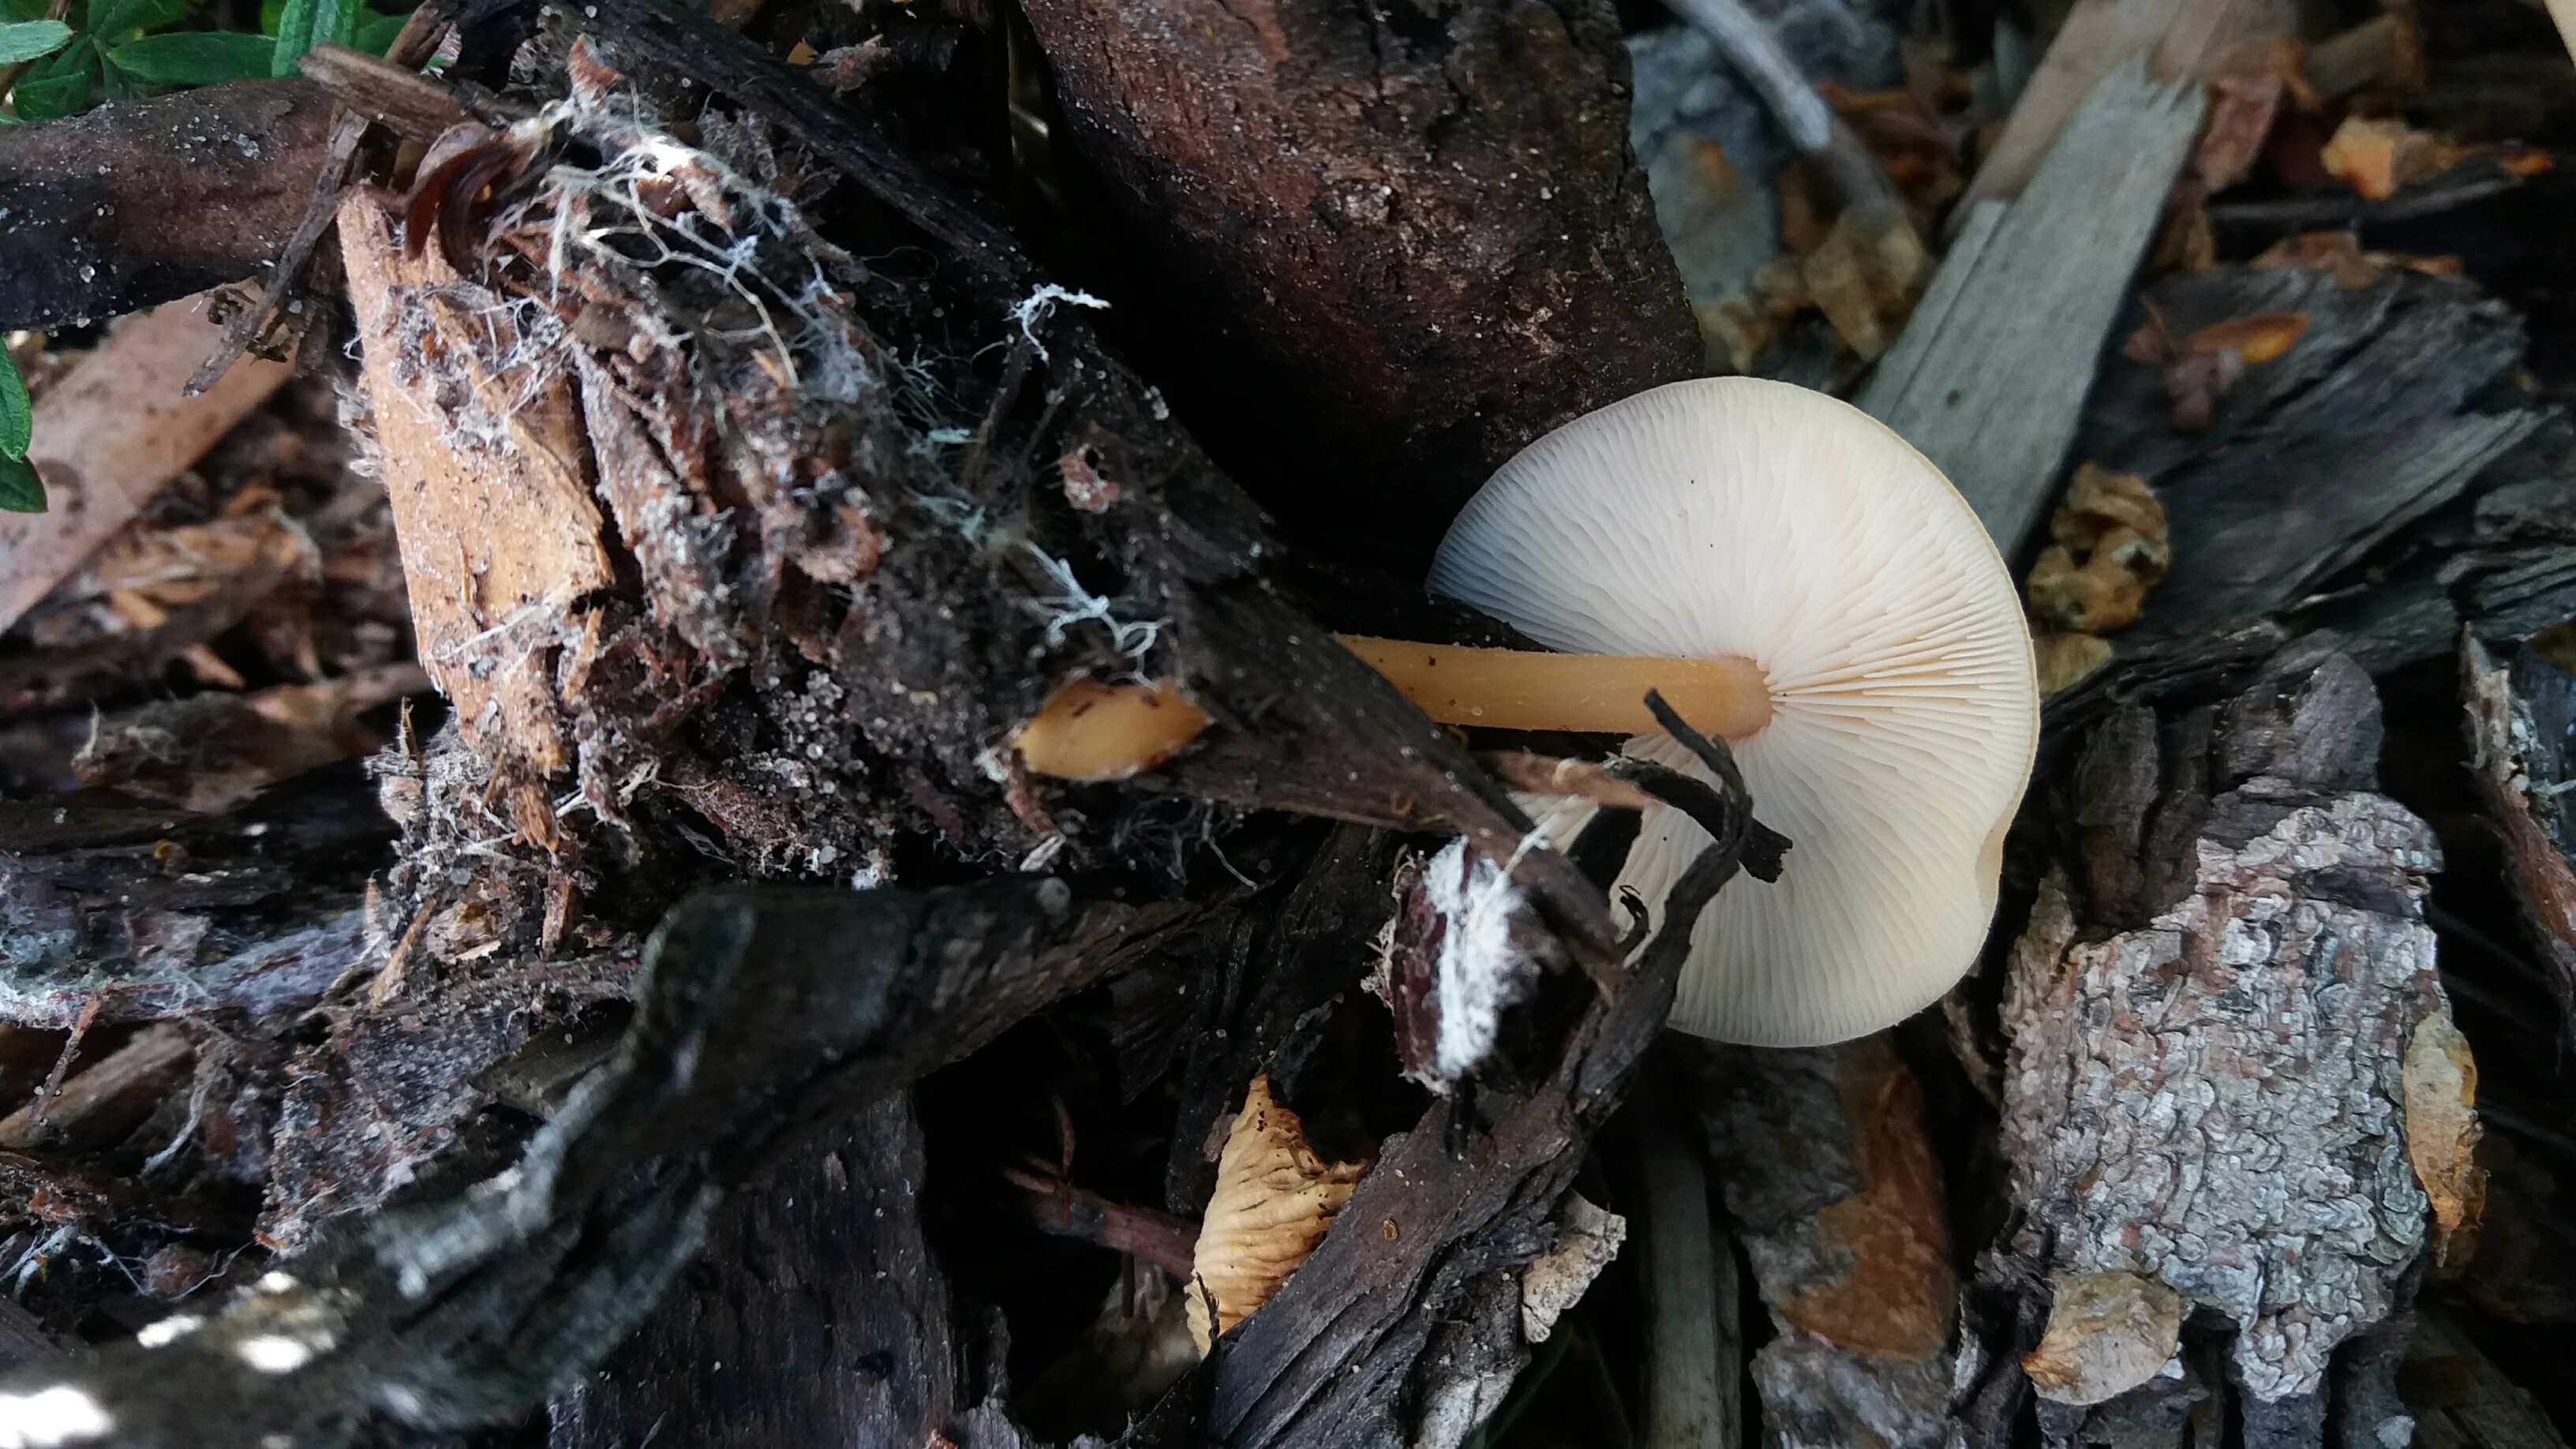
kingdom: Fungi
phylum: Basidiomycota
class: Agaricomycetes
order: Agaricales
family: Omphalotaceae
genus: Gymnopus
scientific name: Gymnopus dryophilus
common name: løv-fladhat
